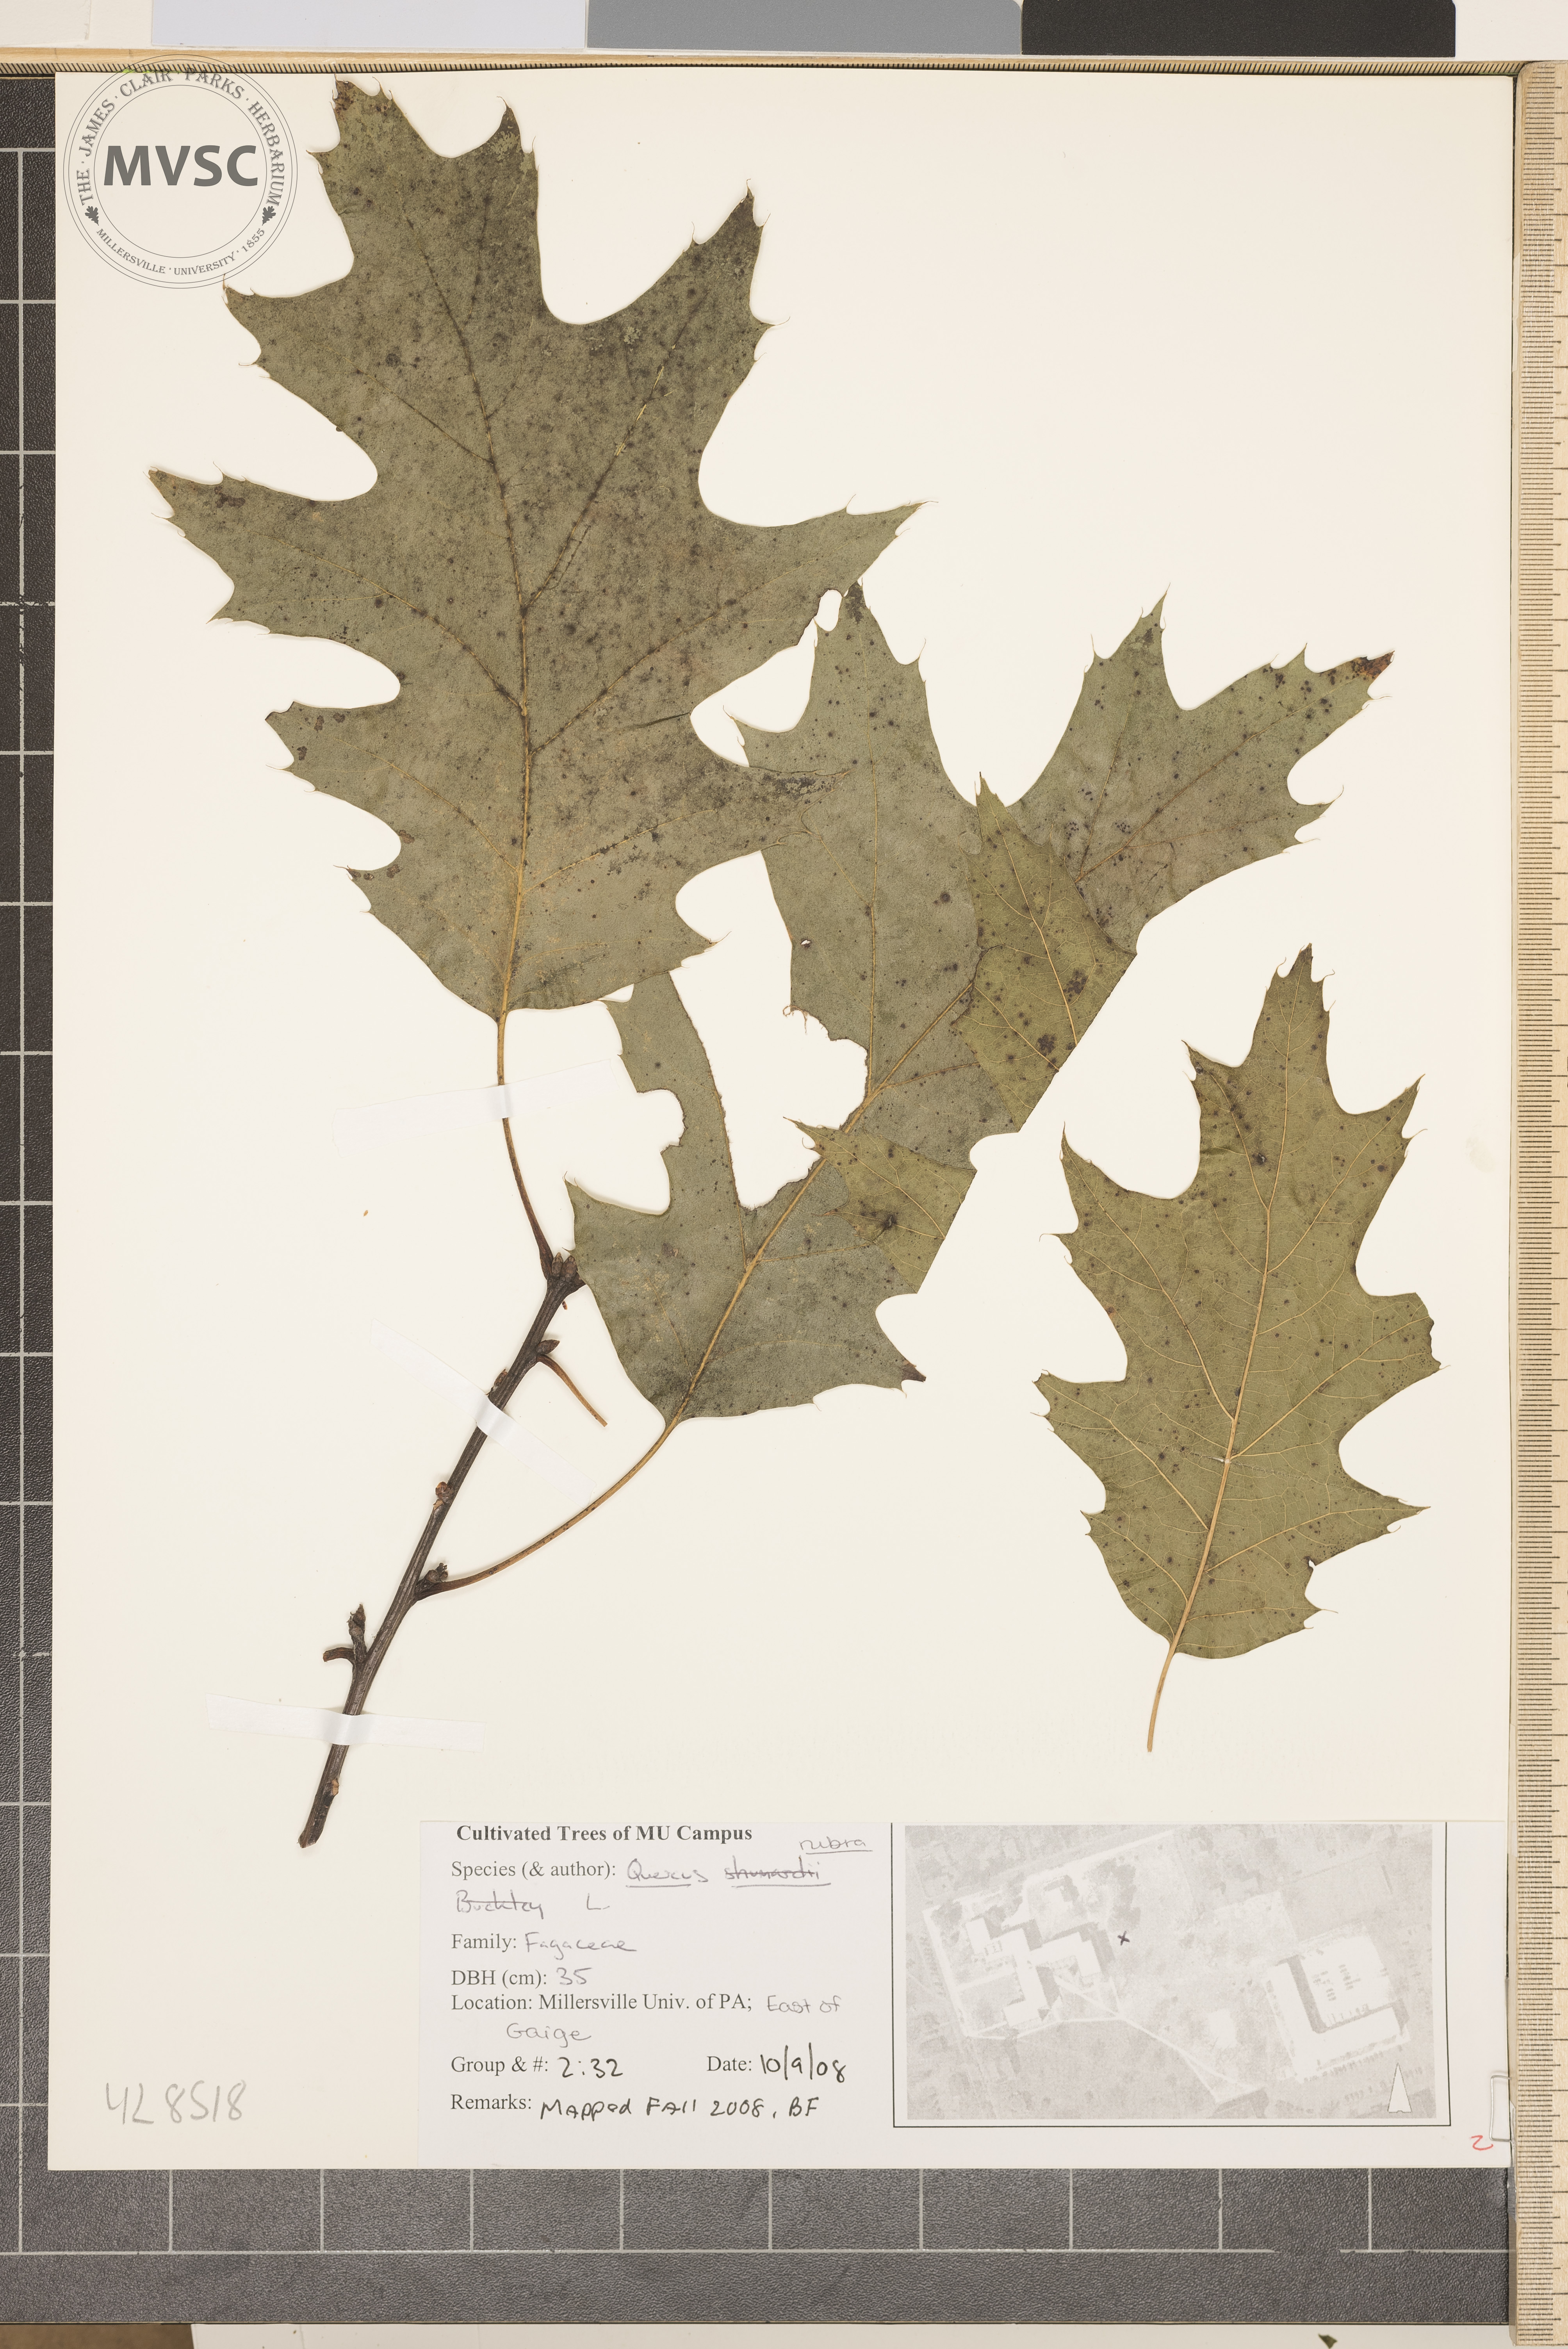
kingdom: Plantae
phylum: Tracheophyta
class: Magnoliopsida
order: Fagales
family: Fagaceae
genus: Quercus
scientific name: Quercus rubra
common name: Northern Red Oak
